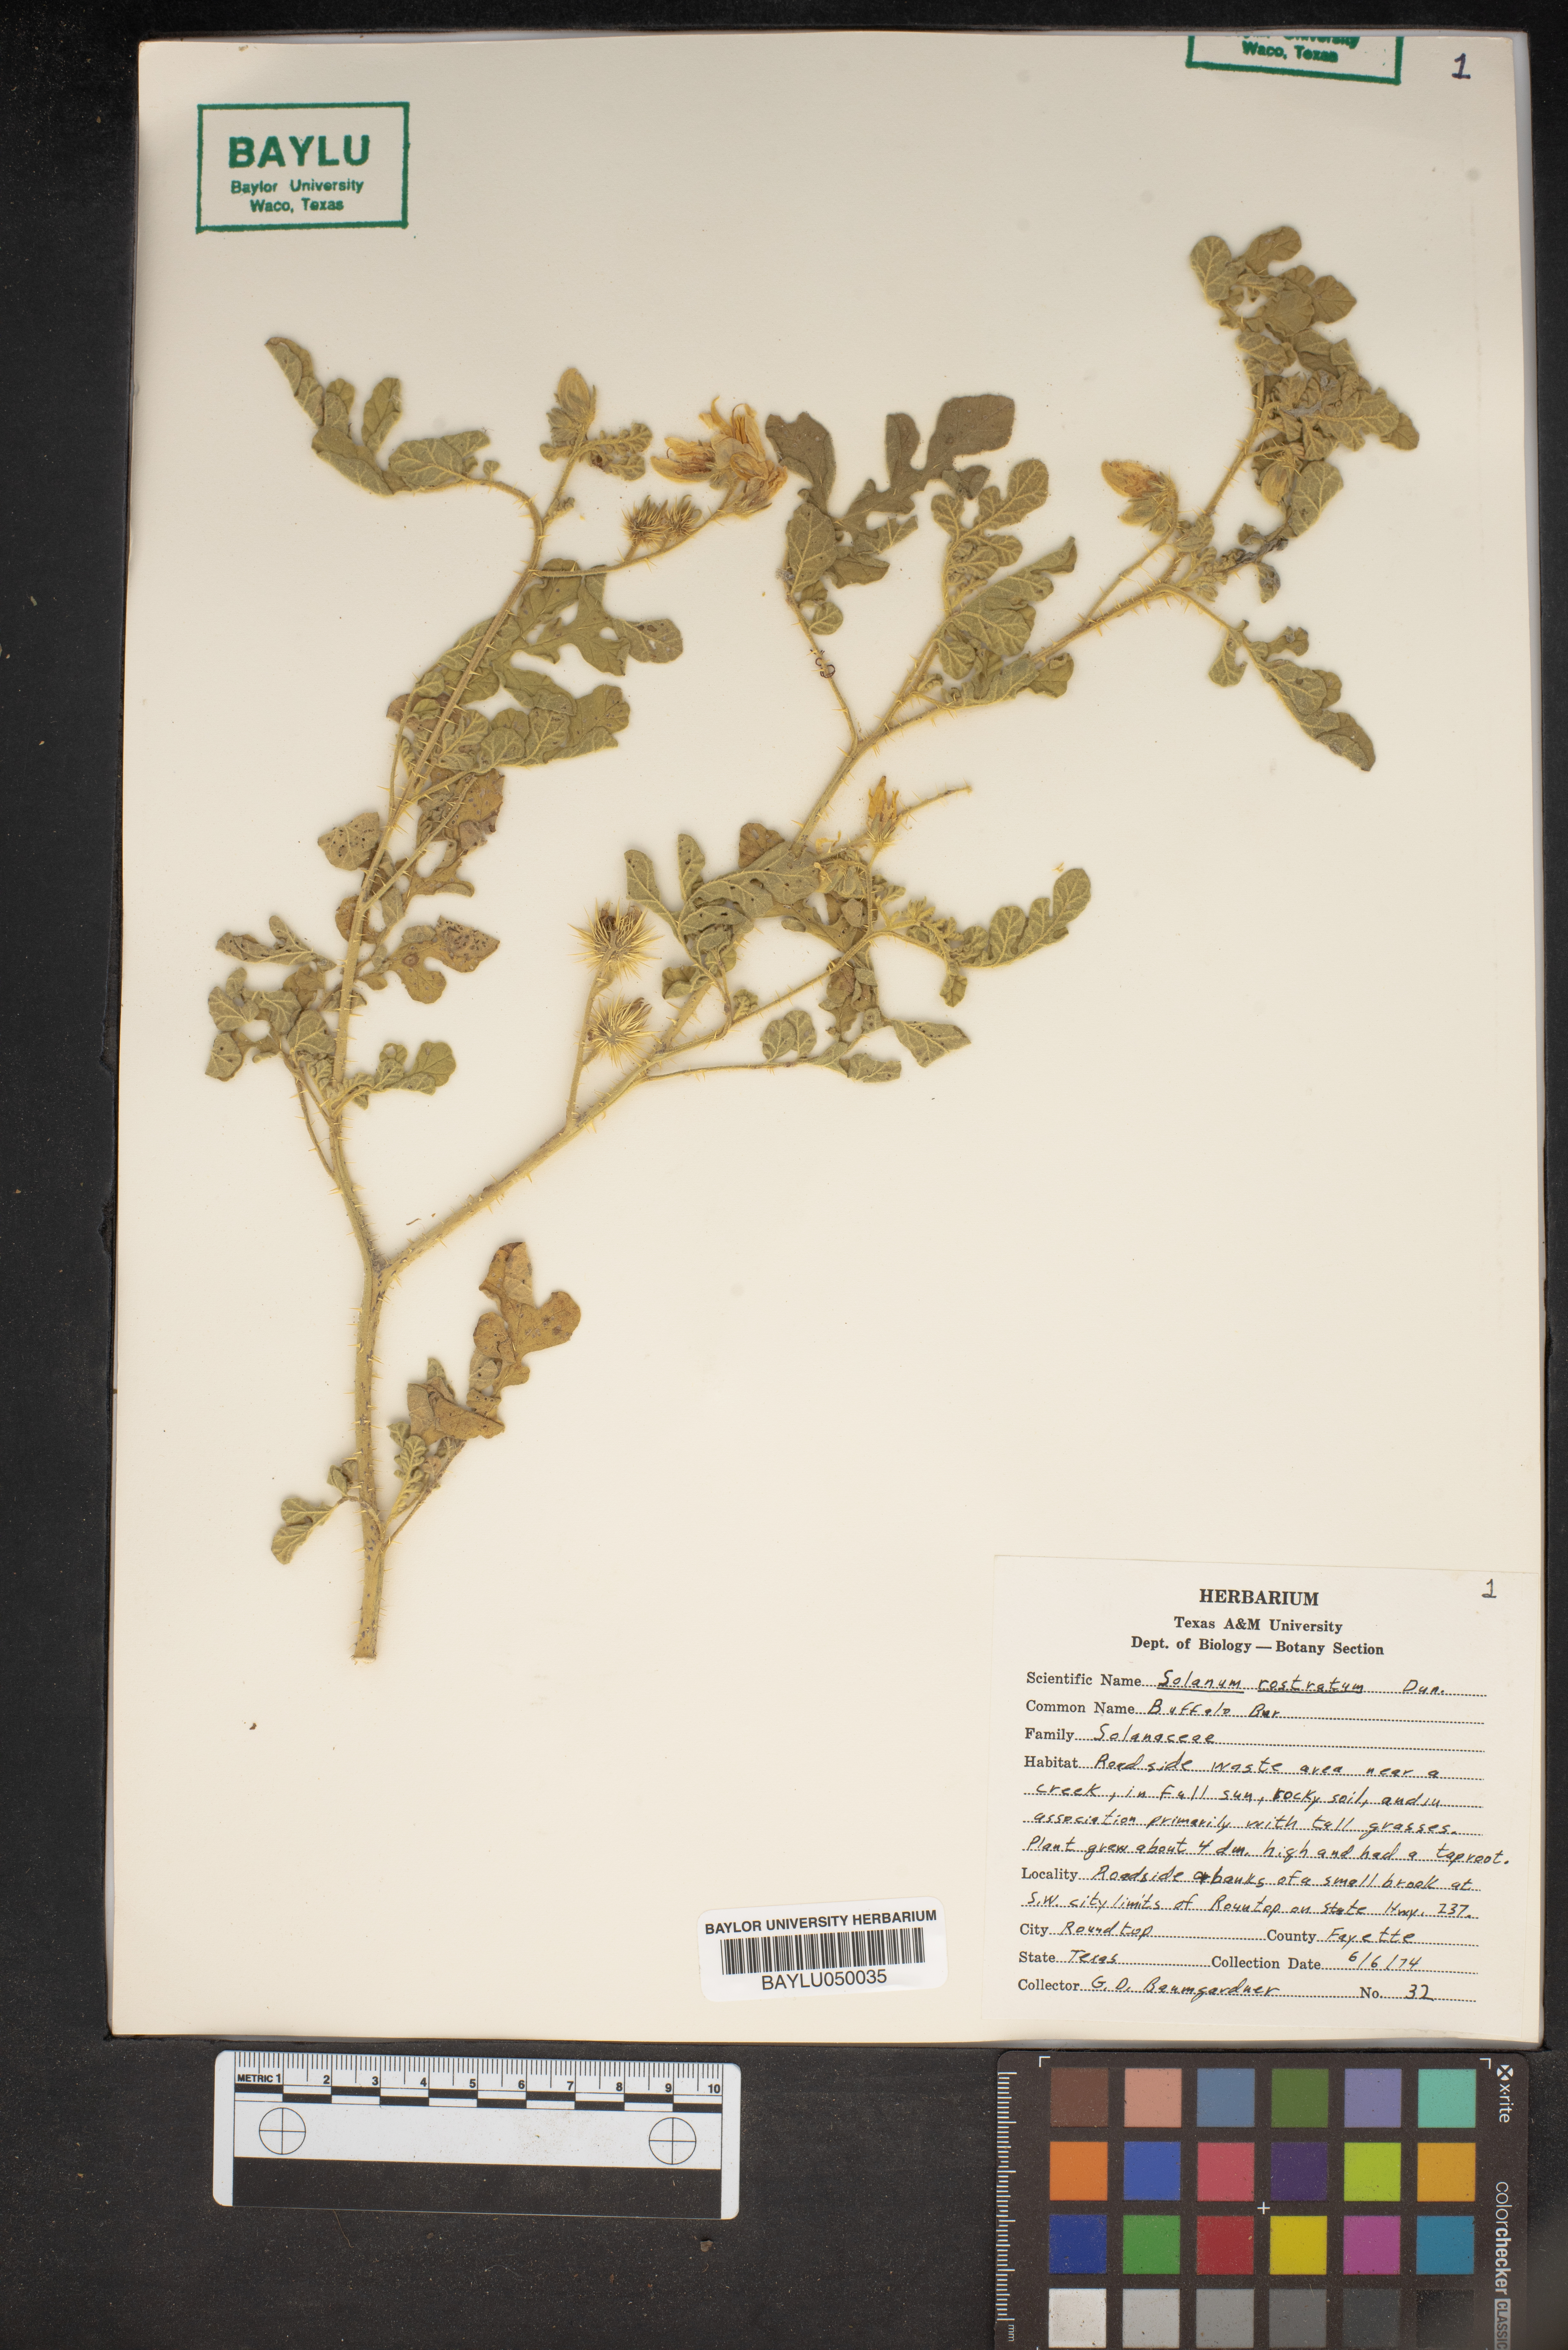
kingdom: Plantae
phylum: Tracheophyta
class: Magnoliopsida
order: Solanales
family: Solanaceae
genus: Solanum
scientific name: Solanum angustifolium
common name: Buffalobur nightshade
